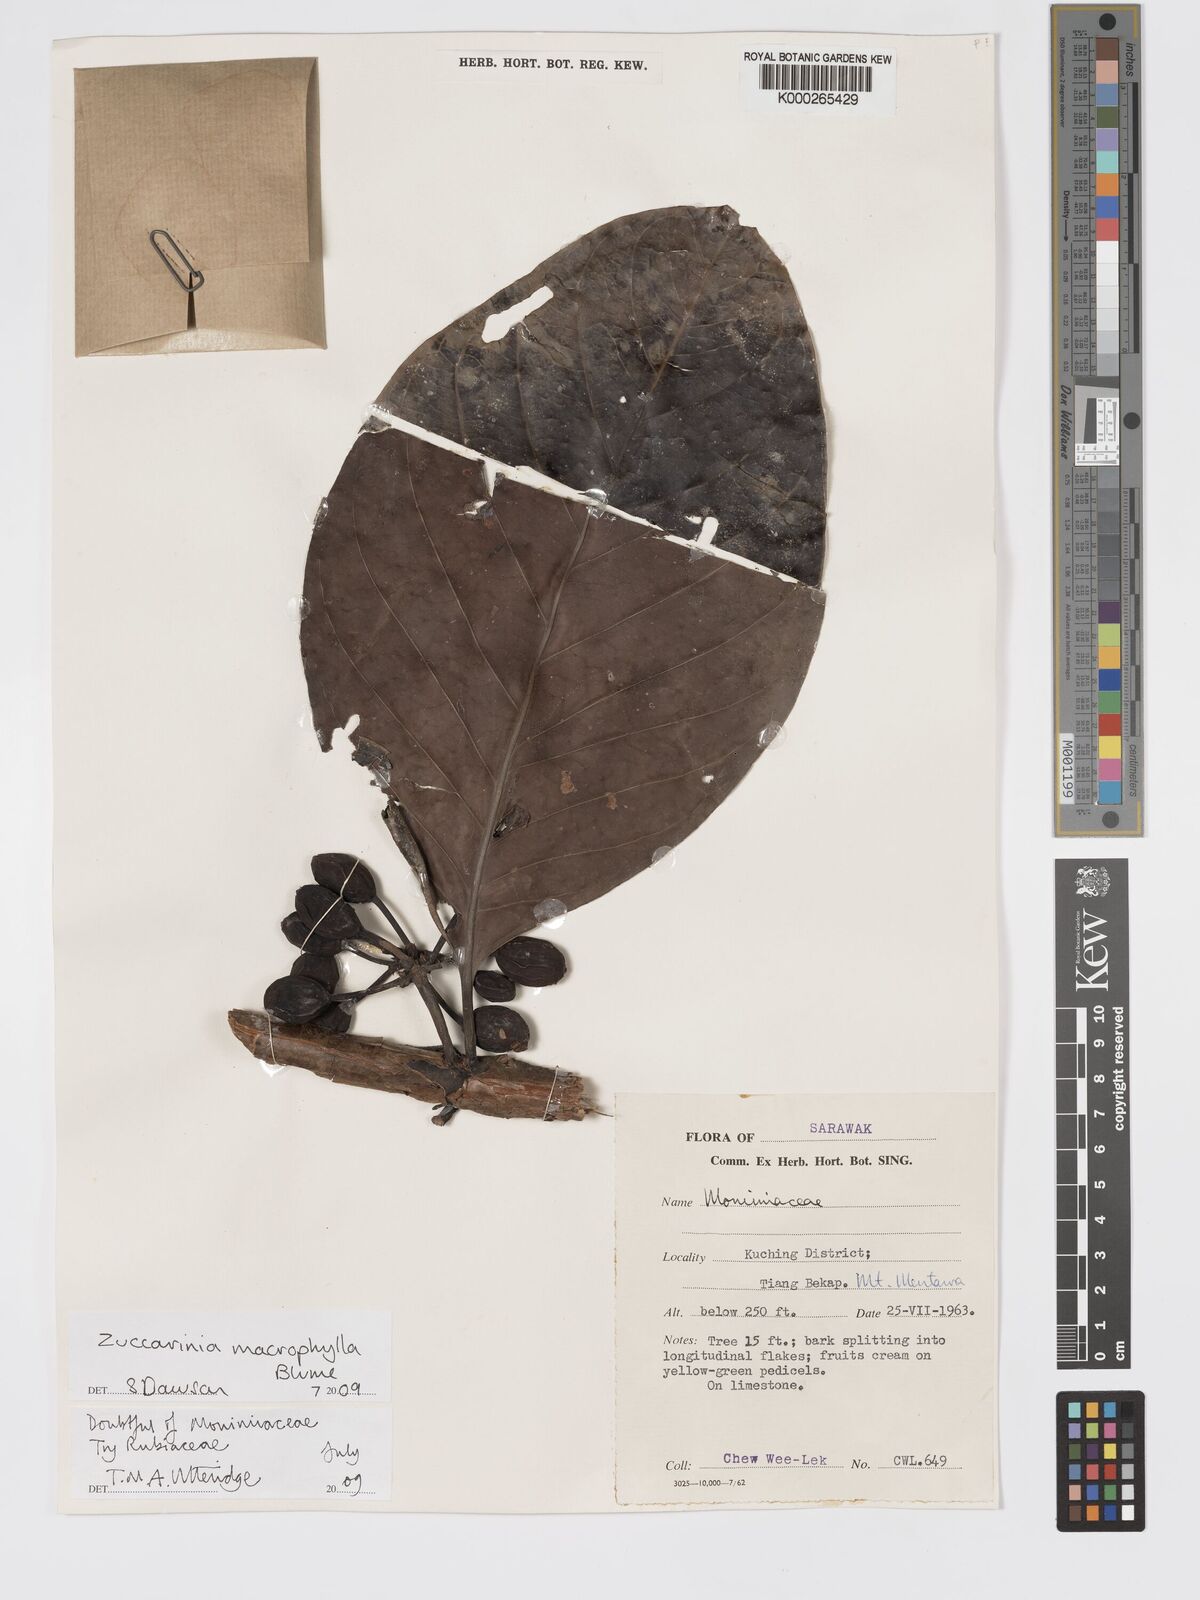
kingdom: Plantae
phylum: Tracheophyta
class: Magnoliopsida
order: Gentianales
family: Rubiaceae
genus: Zuccarinia
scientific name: Zuccarinia macrophylla
